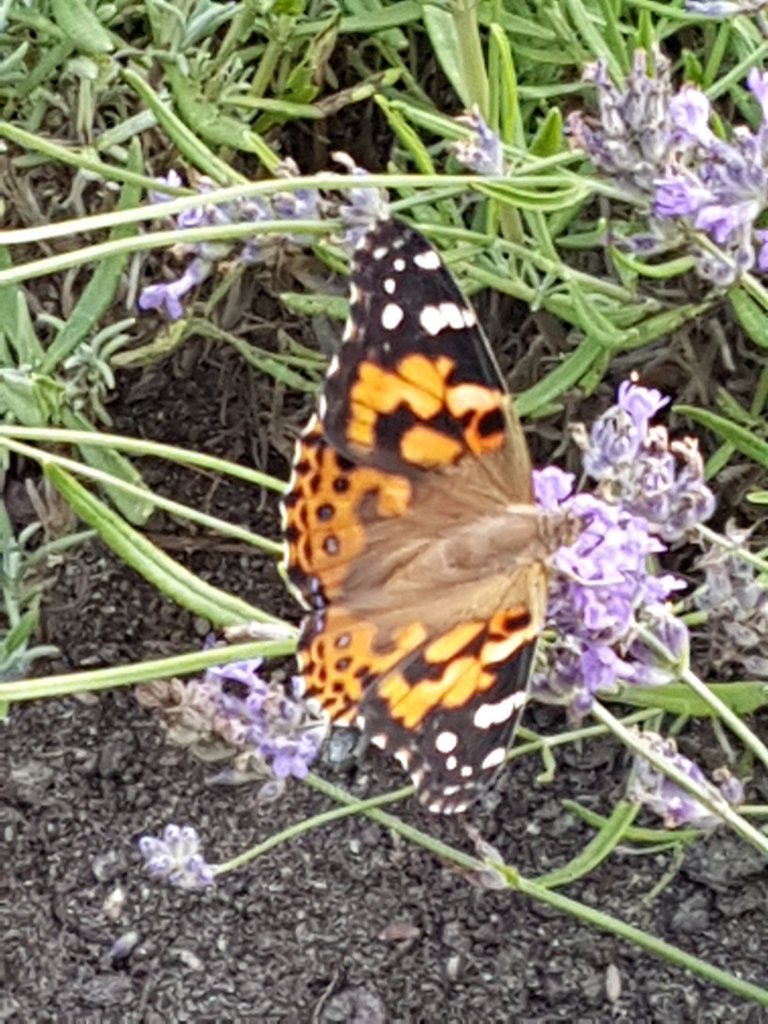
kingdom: Animalia
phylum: Arthropoda
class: Insecta
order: Lepidoptera
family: Nymphalidae
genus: Vanessa
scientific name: Vanessa cardui
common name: Painted Lady
